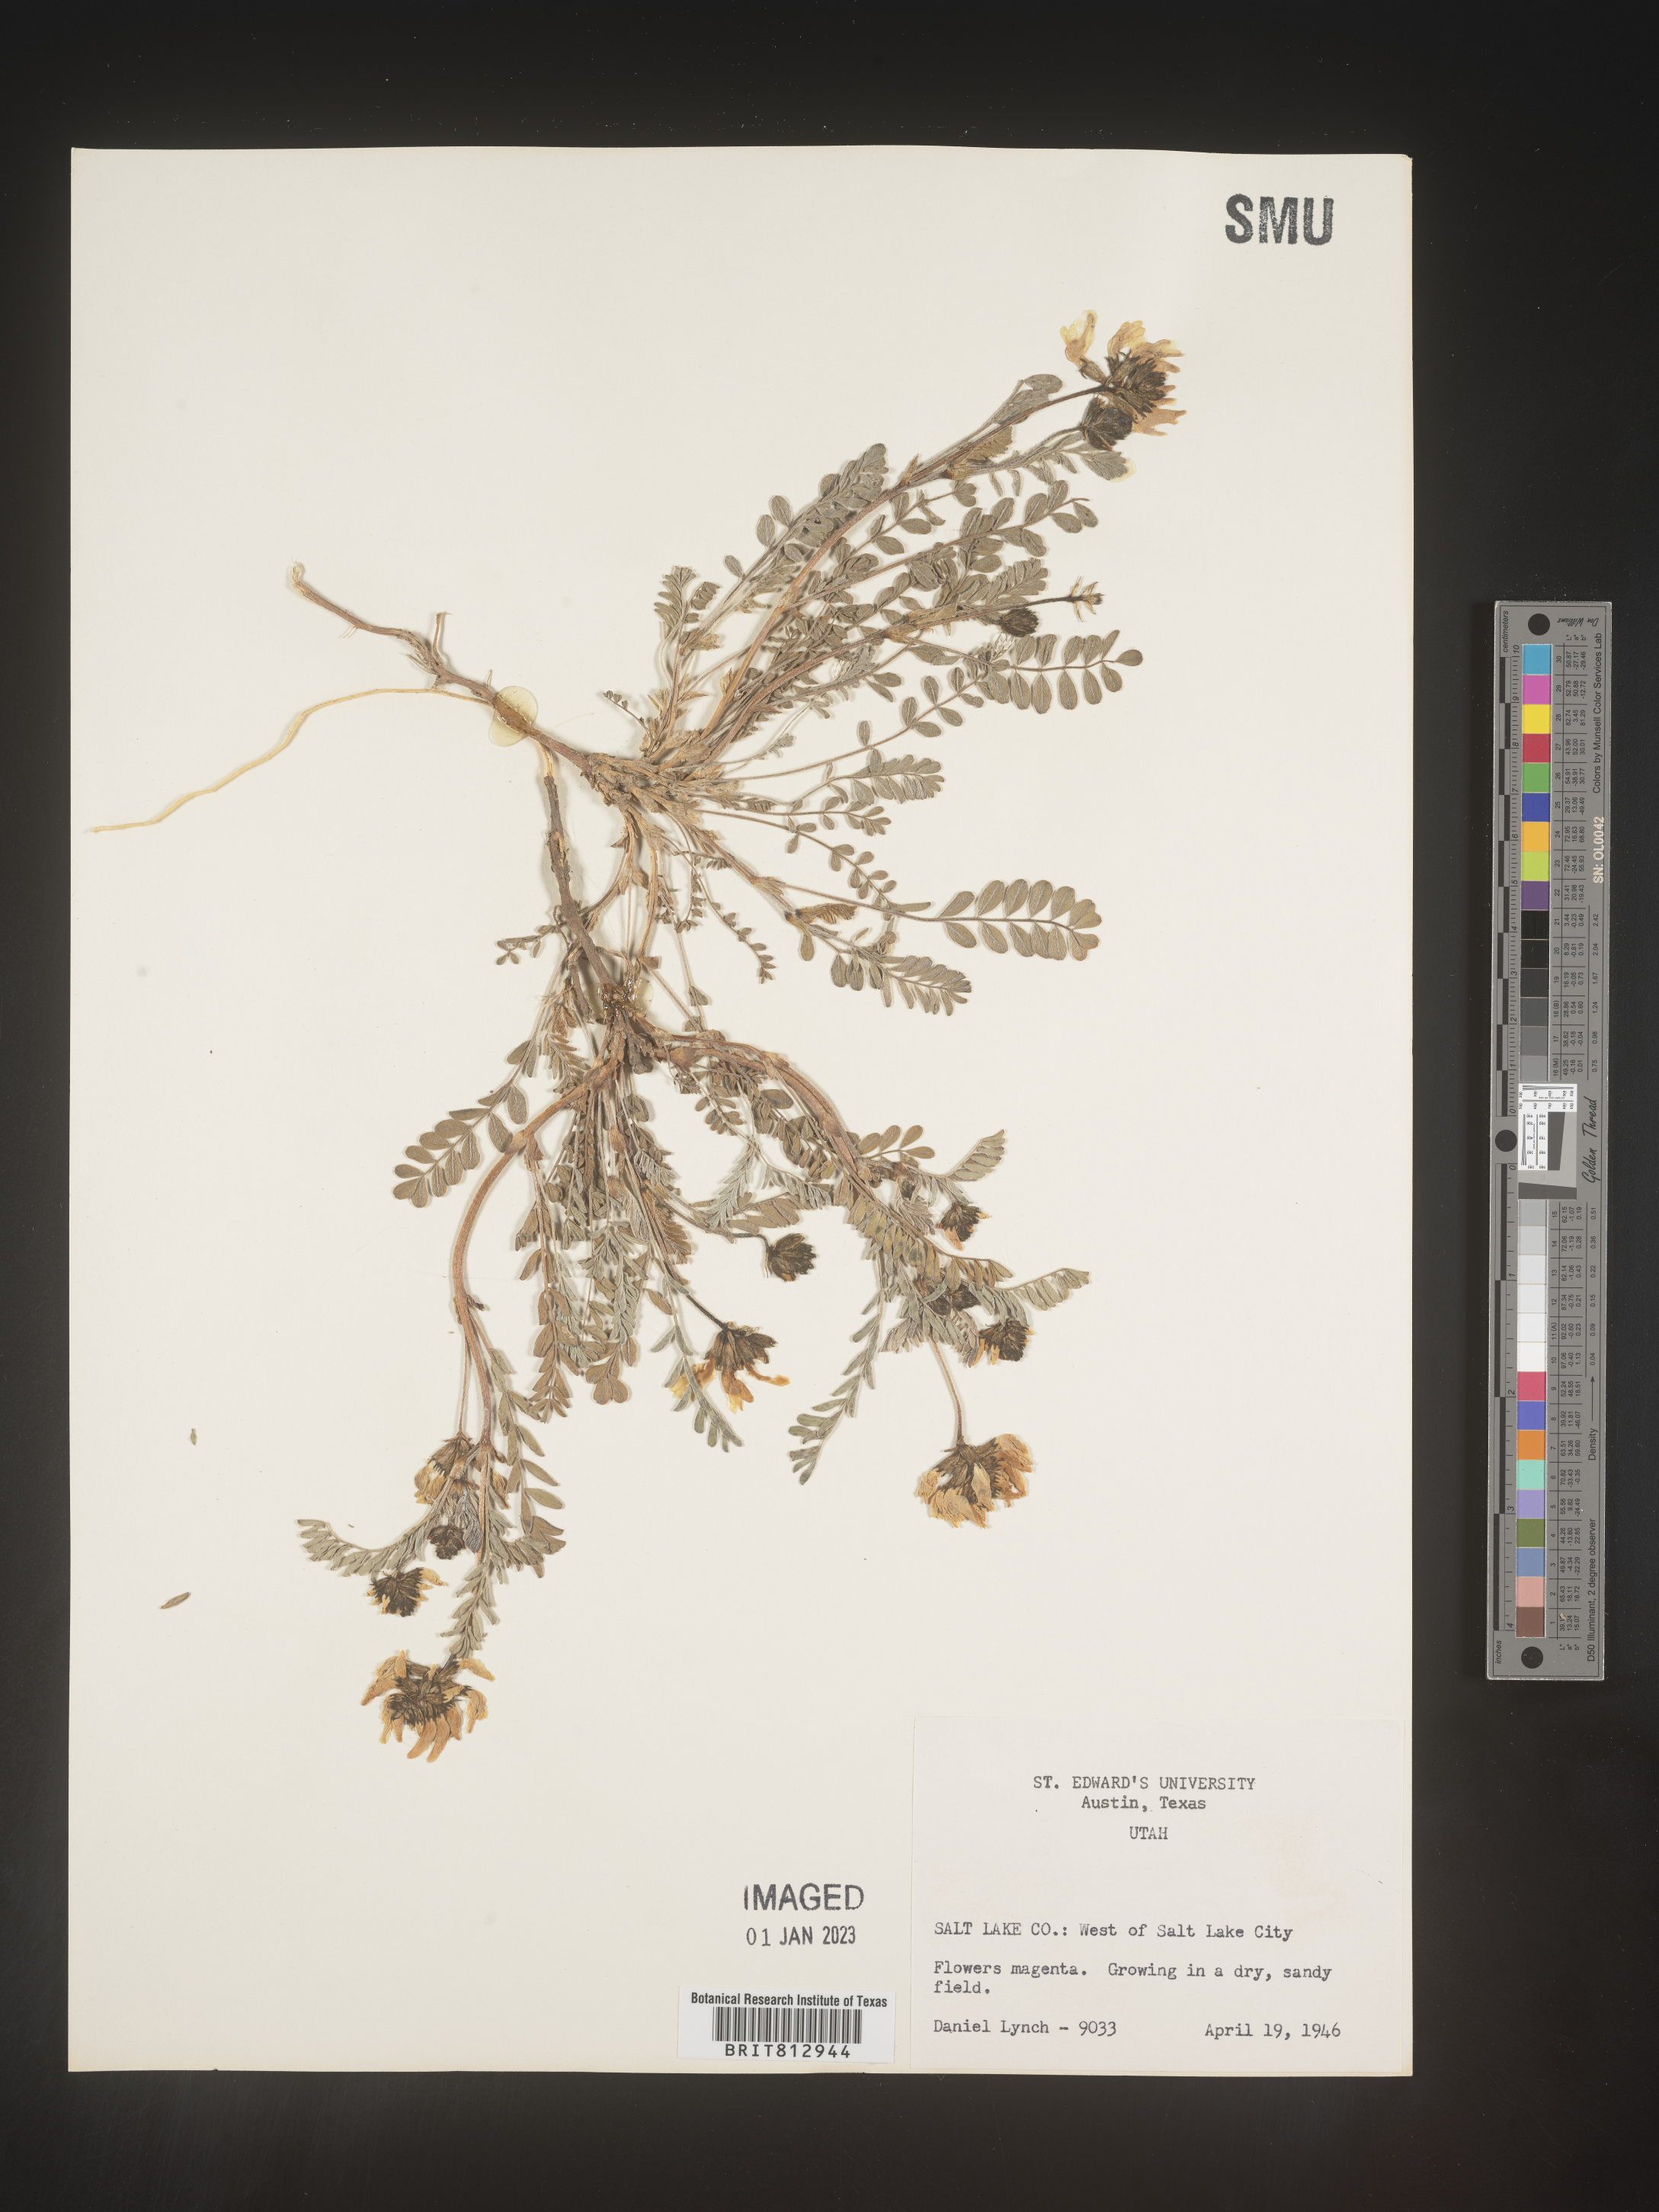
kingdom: Plantae
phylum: Tracheophyta
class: Magnoliopsida
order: Fabales
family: Fabaceae
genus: Astragalus
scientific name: Astragalus
